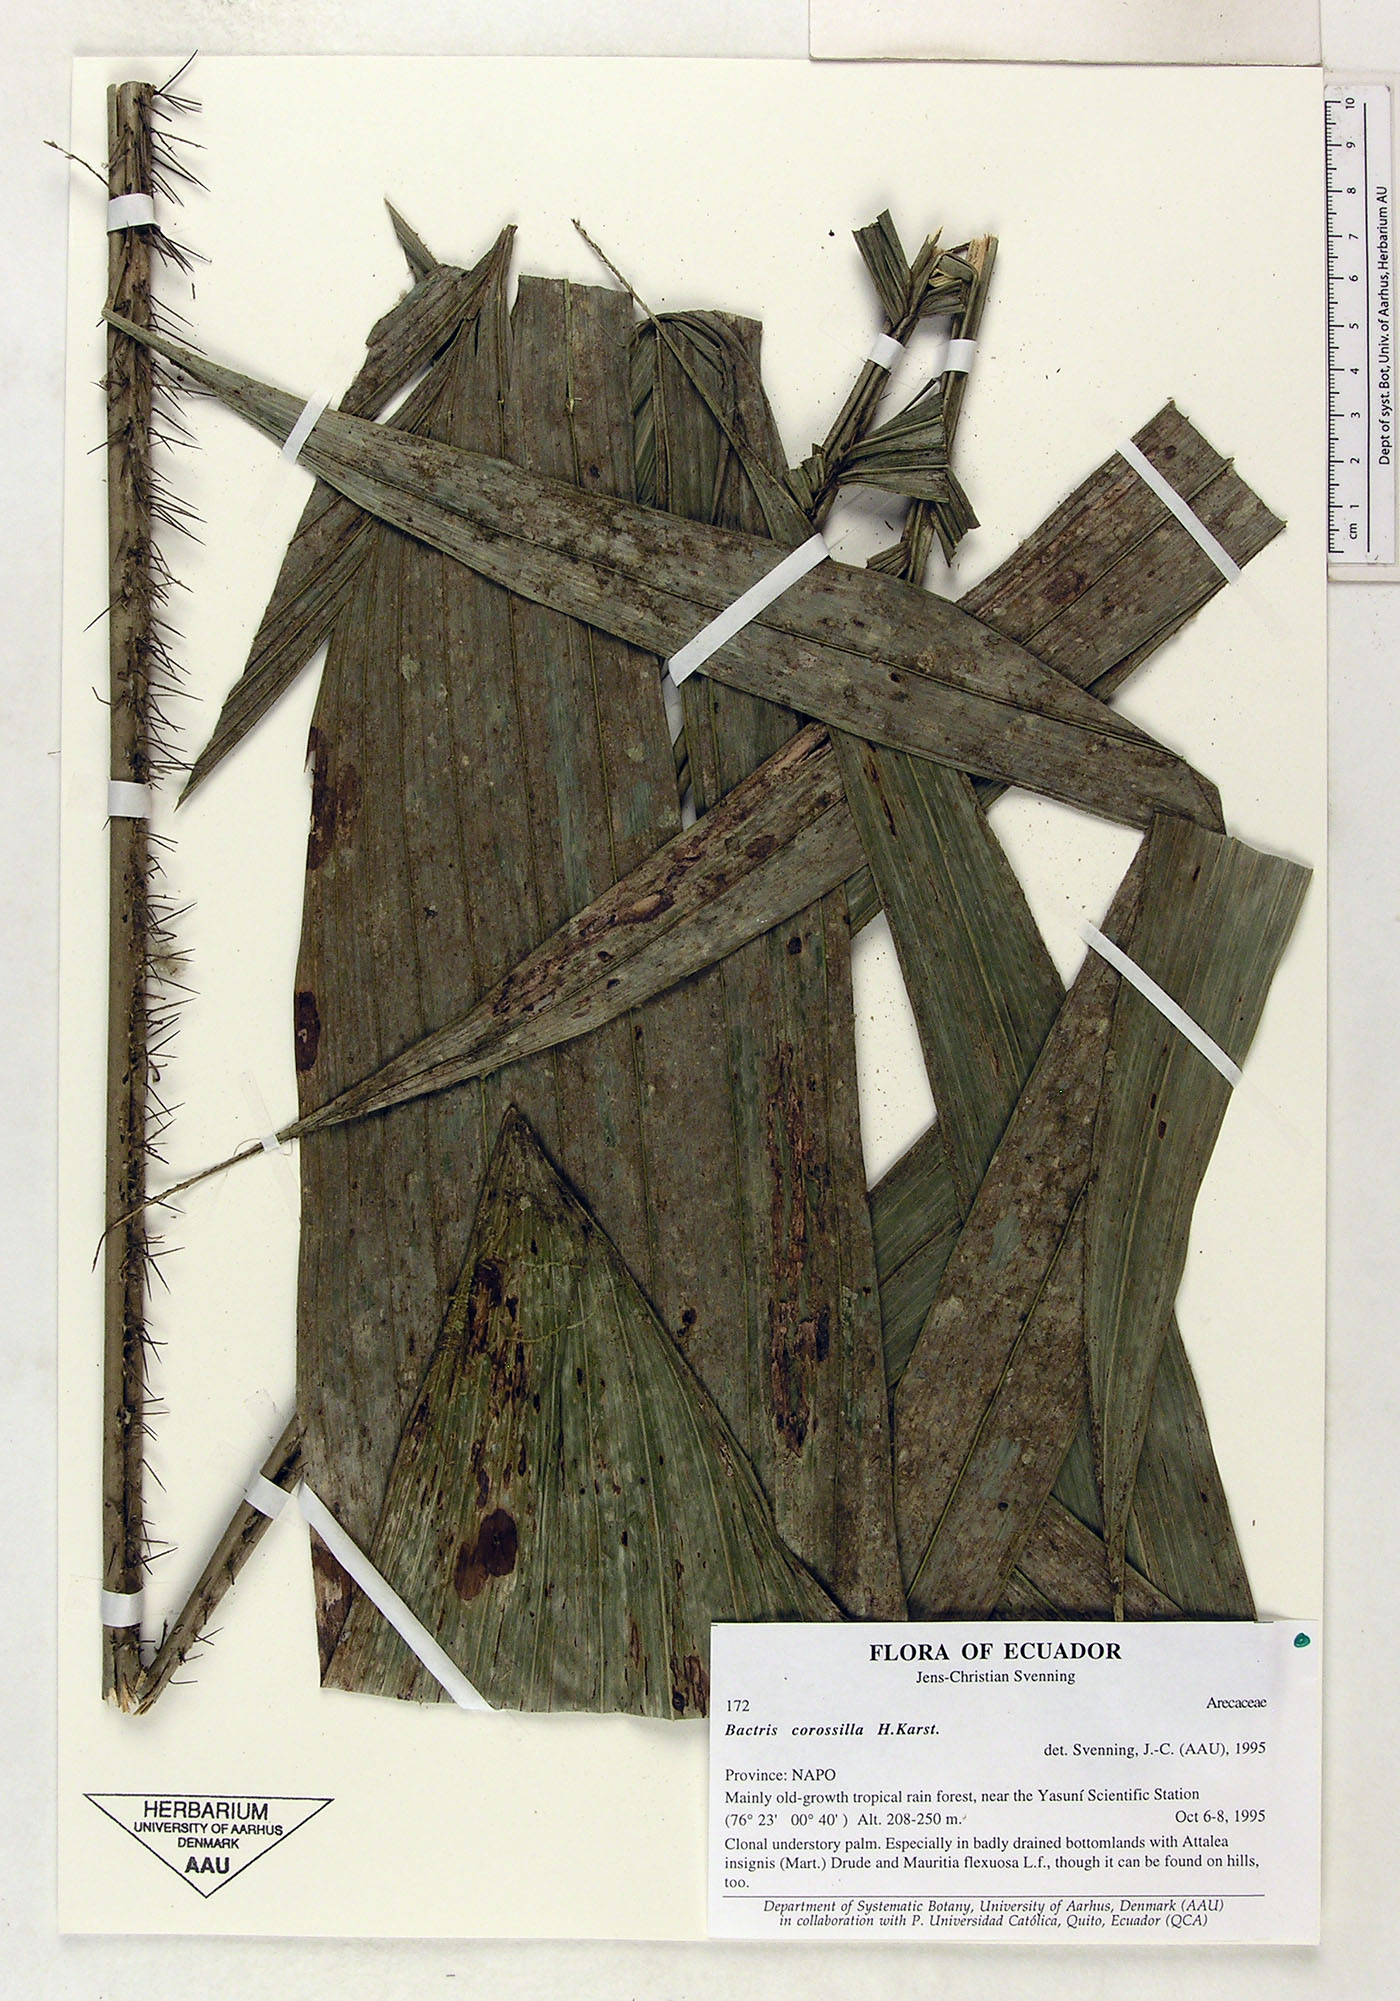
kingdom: Plantae
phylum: Tracheophyta
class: Liliopsida
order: Arecales
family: Arecaceae
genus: Bactris
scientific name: Bactris corossilla
